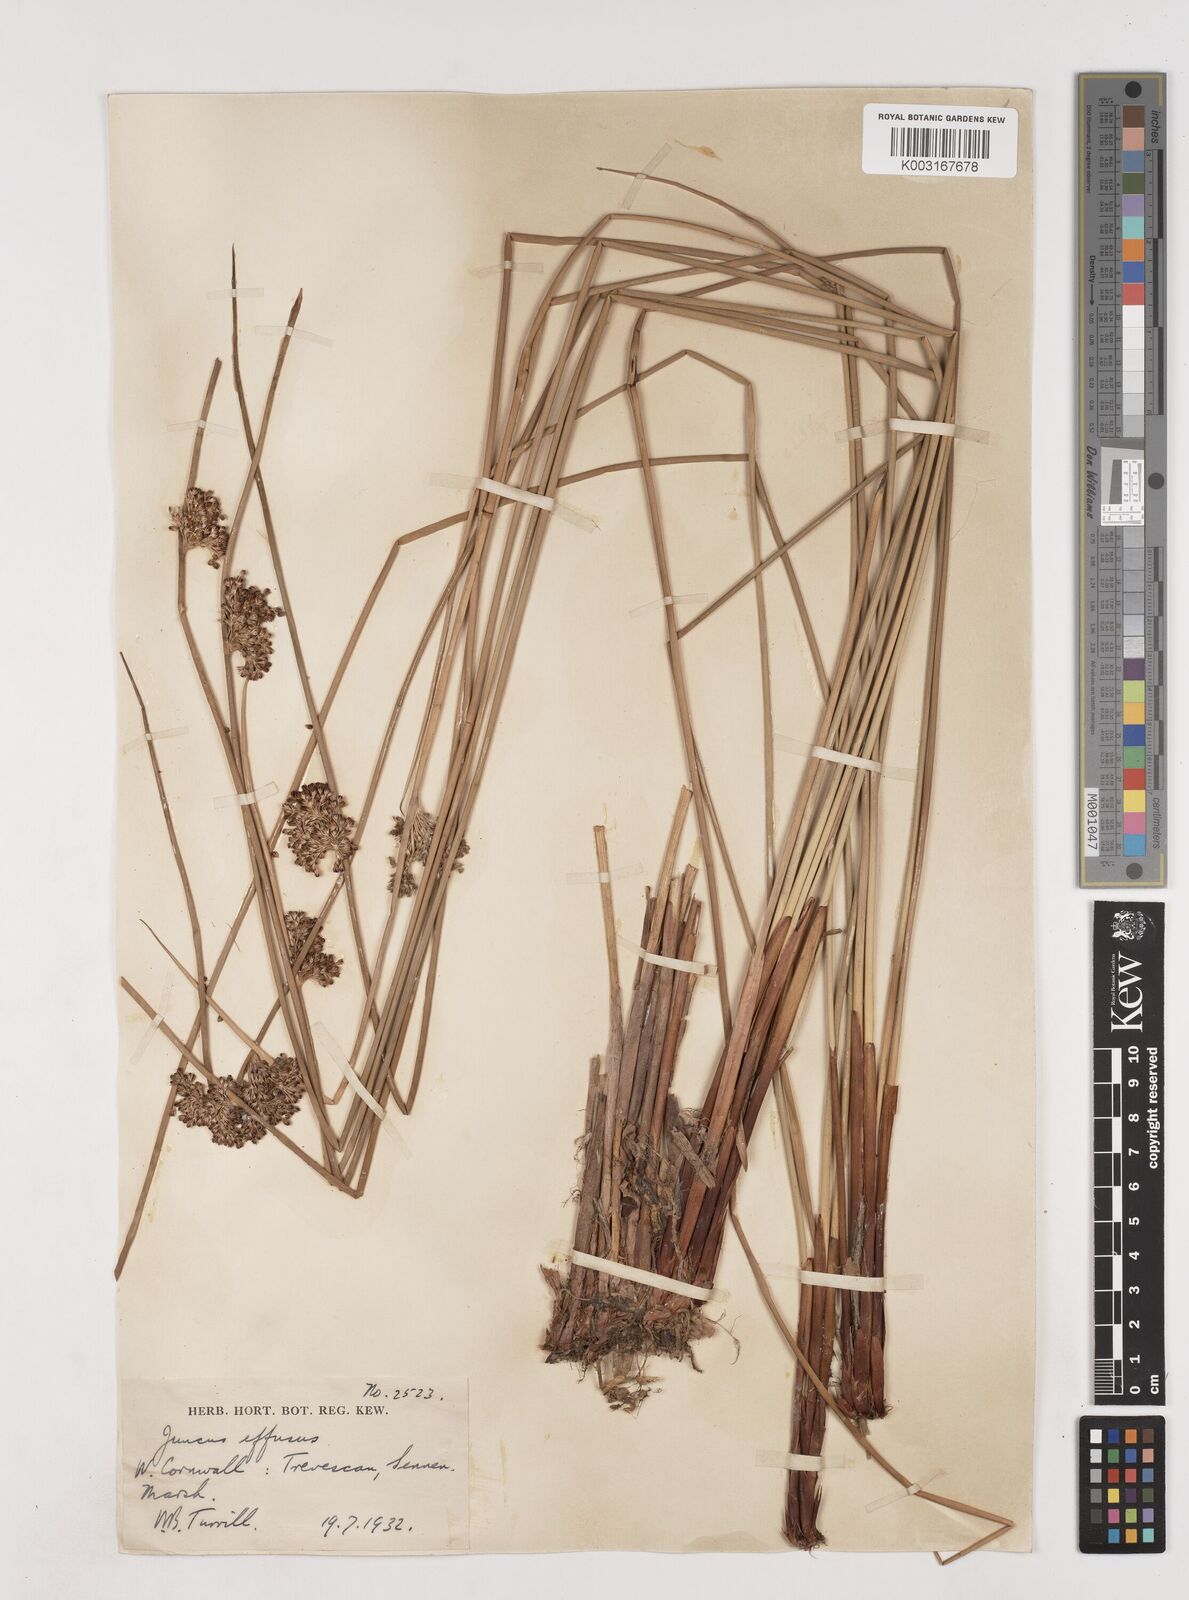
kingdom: Plantae
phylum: Tracheophyta
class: Liliopsida
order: Poales
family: Juncaceae
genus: Juncus
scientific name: Juncus effusus
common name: Soft rush
